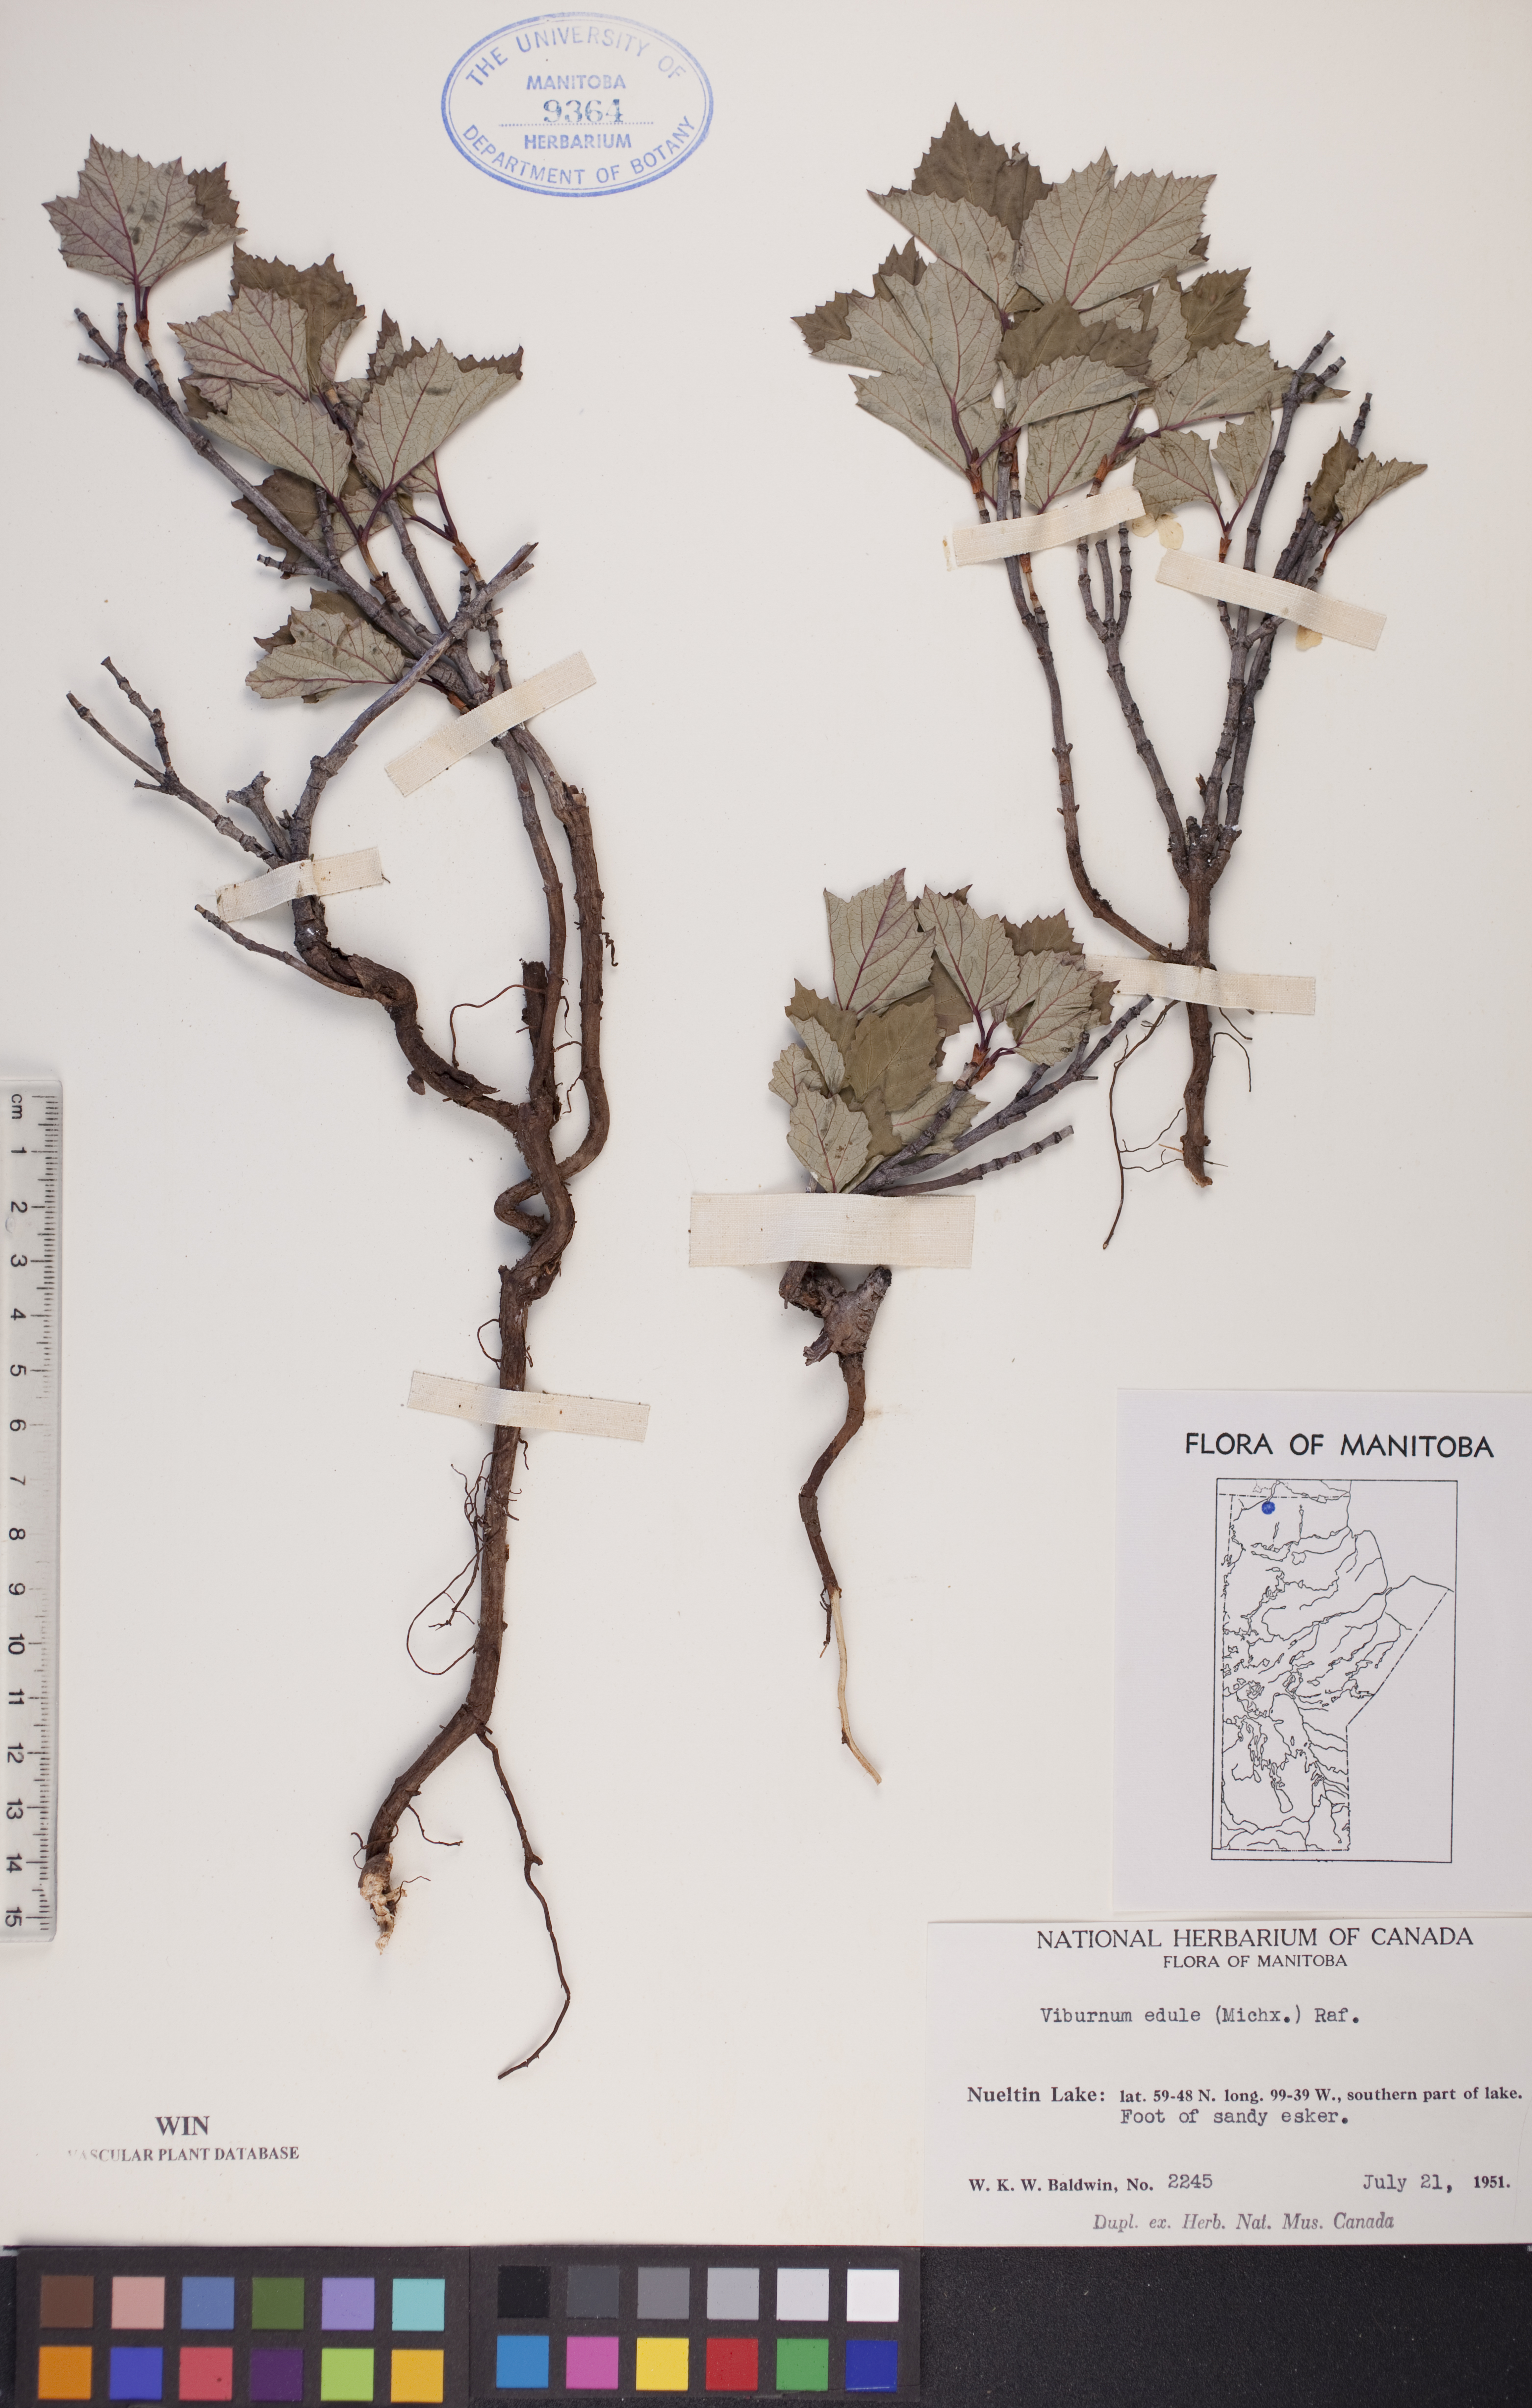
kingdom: Plantae
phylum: Tracheophyta
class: Magnoliopsida
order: Dipsacales
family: Viburnaceae
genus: Viburnum
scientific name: Viburnum edule
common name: Mooseberry
